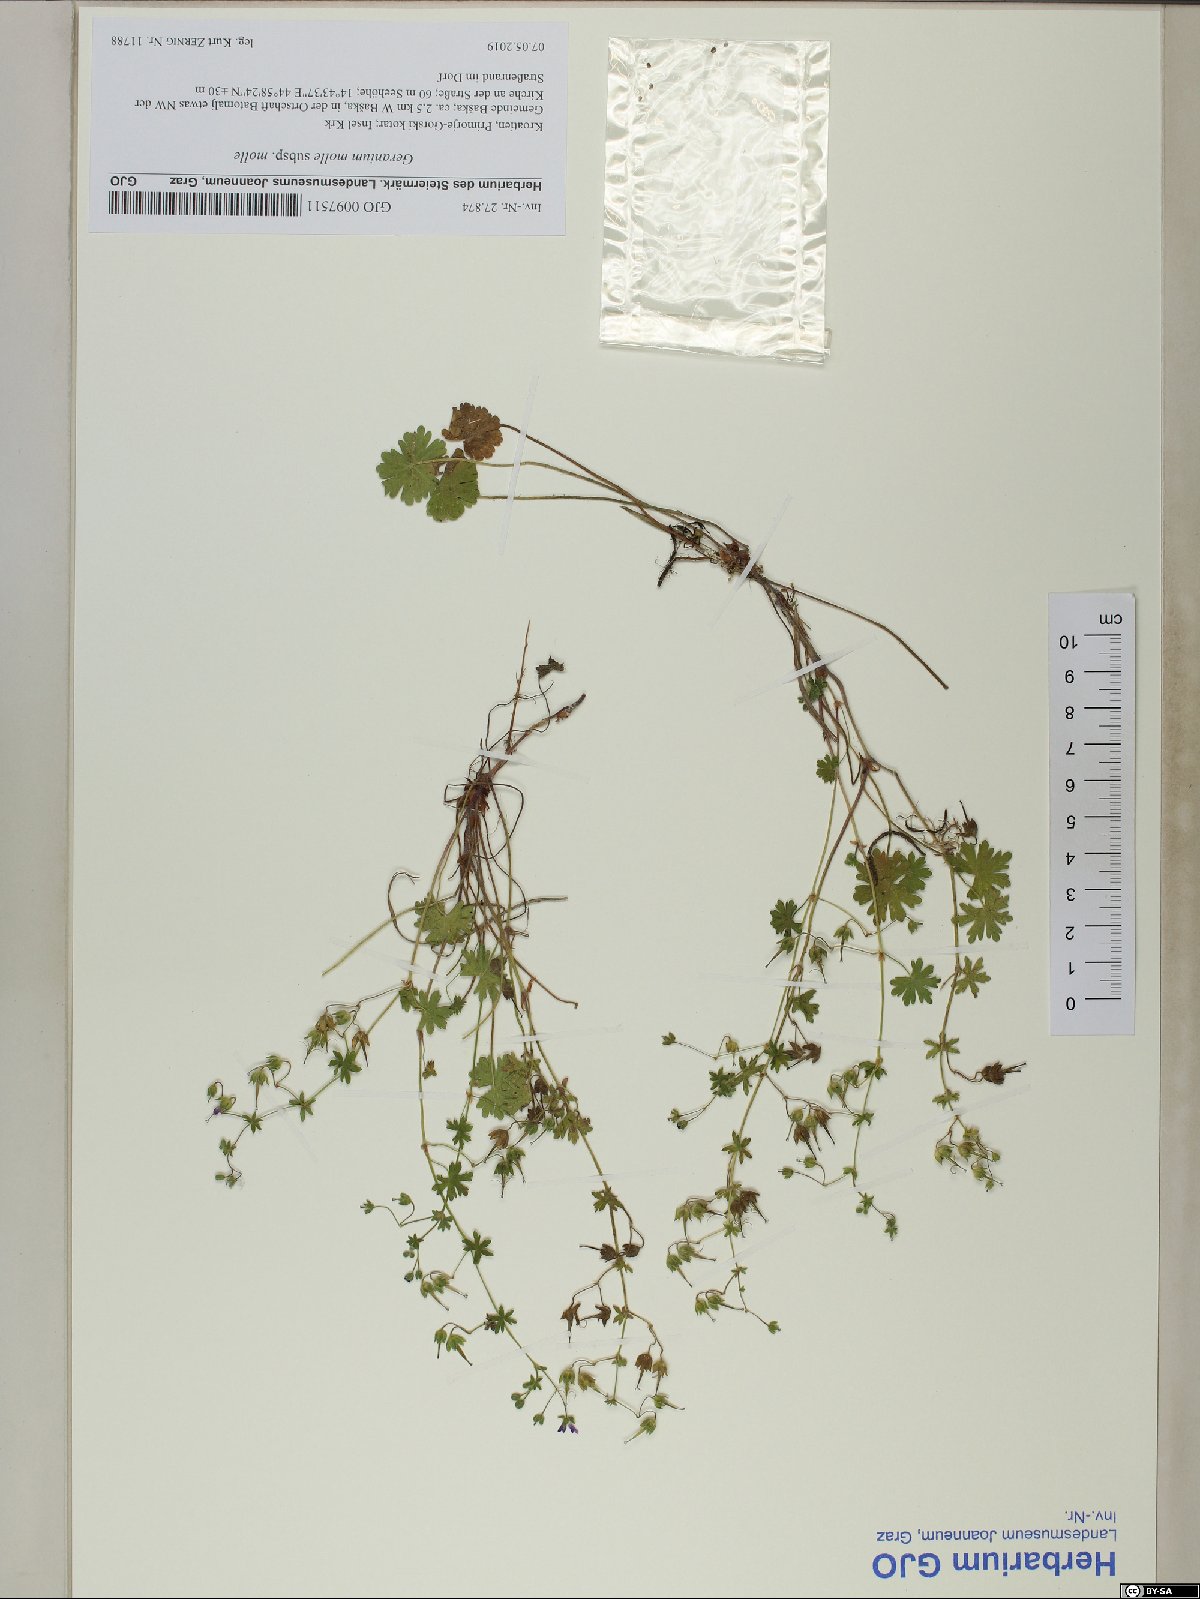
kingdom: Plantae
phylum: Tracheophyta
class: Magnoliopsida
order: Geraniales
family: Geraniaceae
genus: Geranium
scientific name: Geranium molle
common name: Dove's-foot crane's-bill
